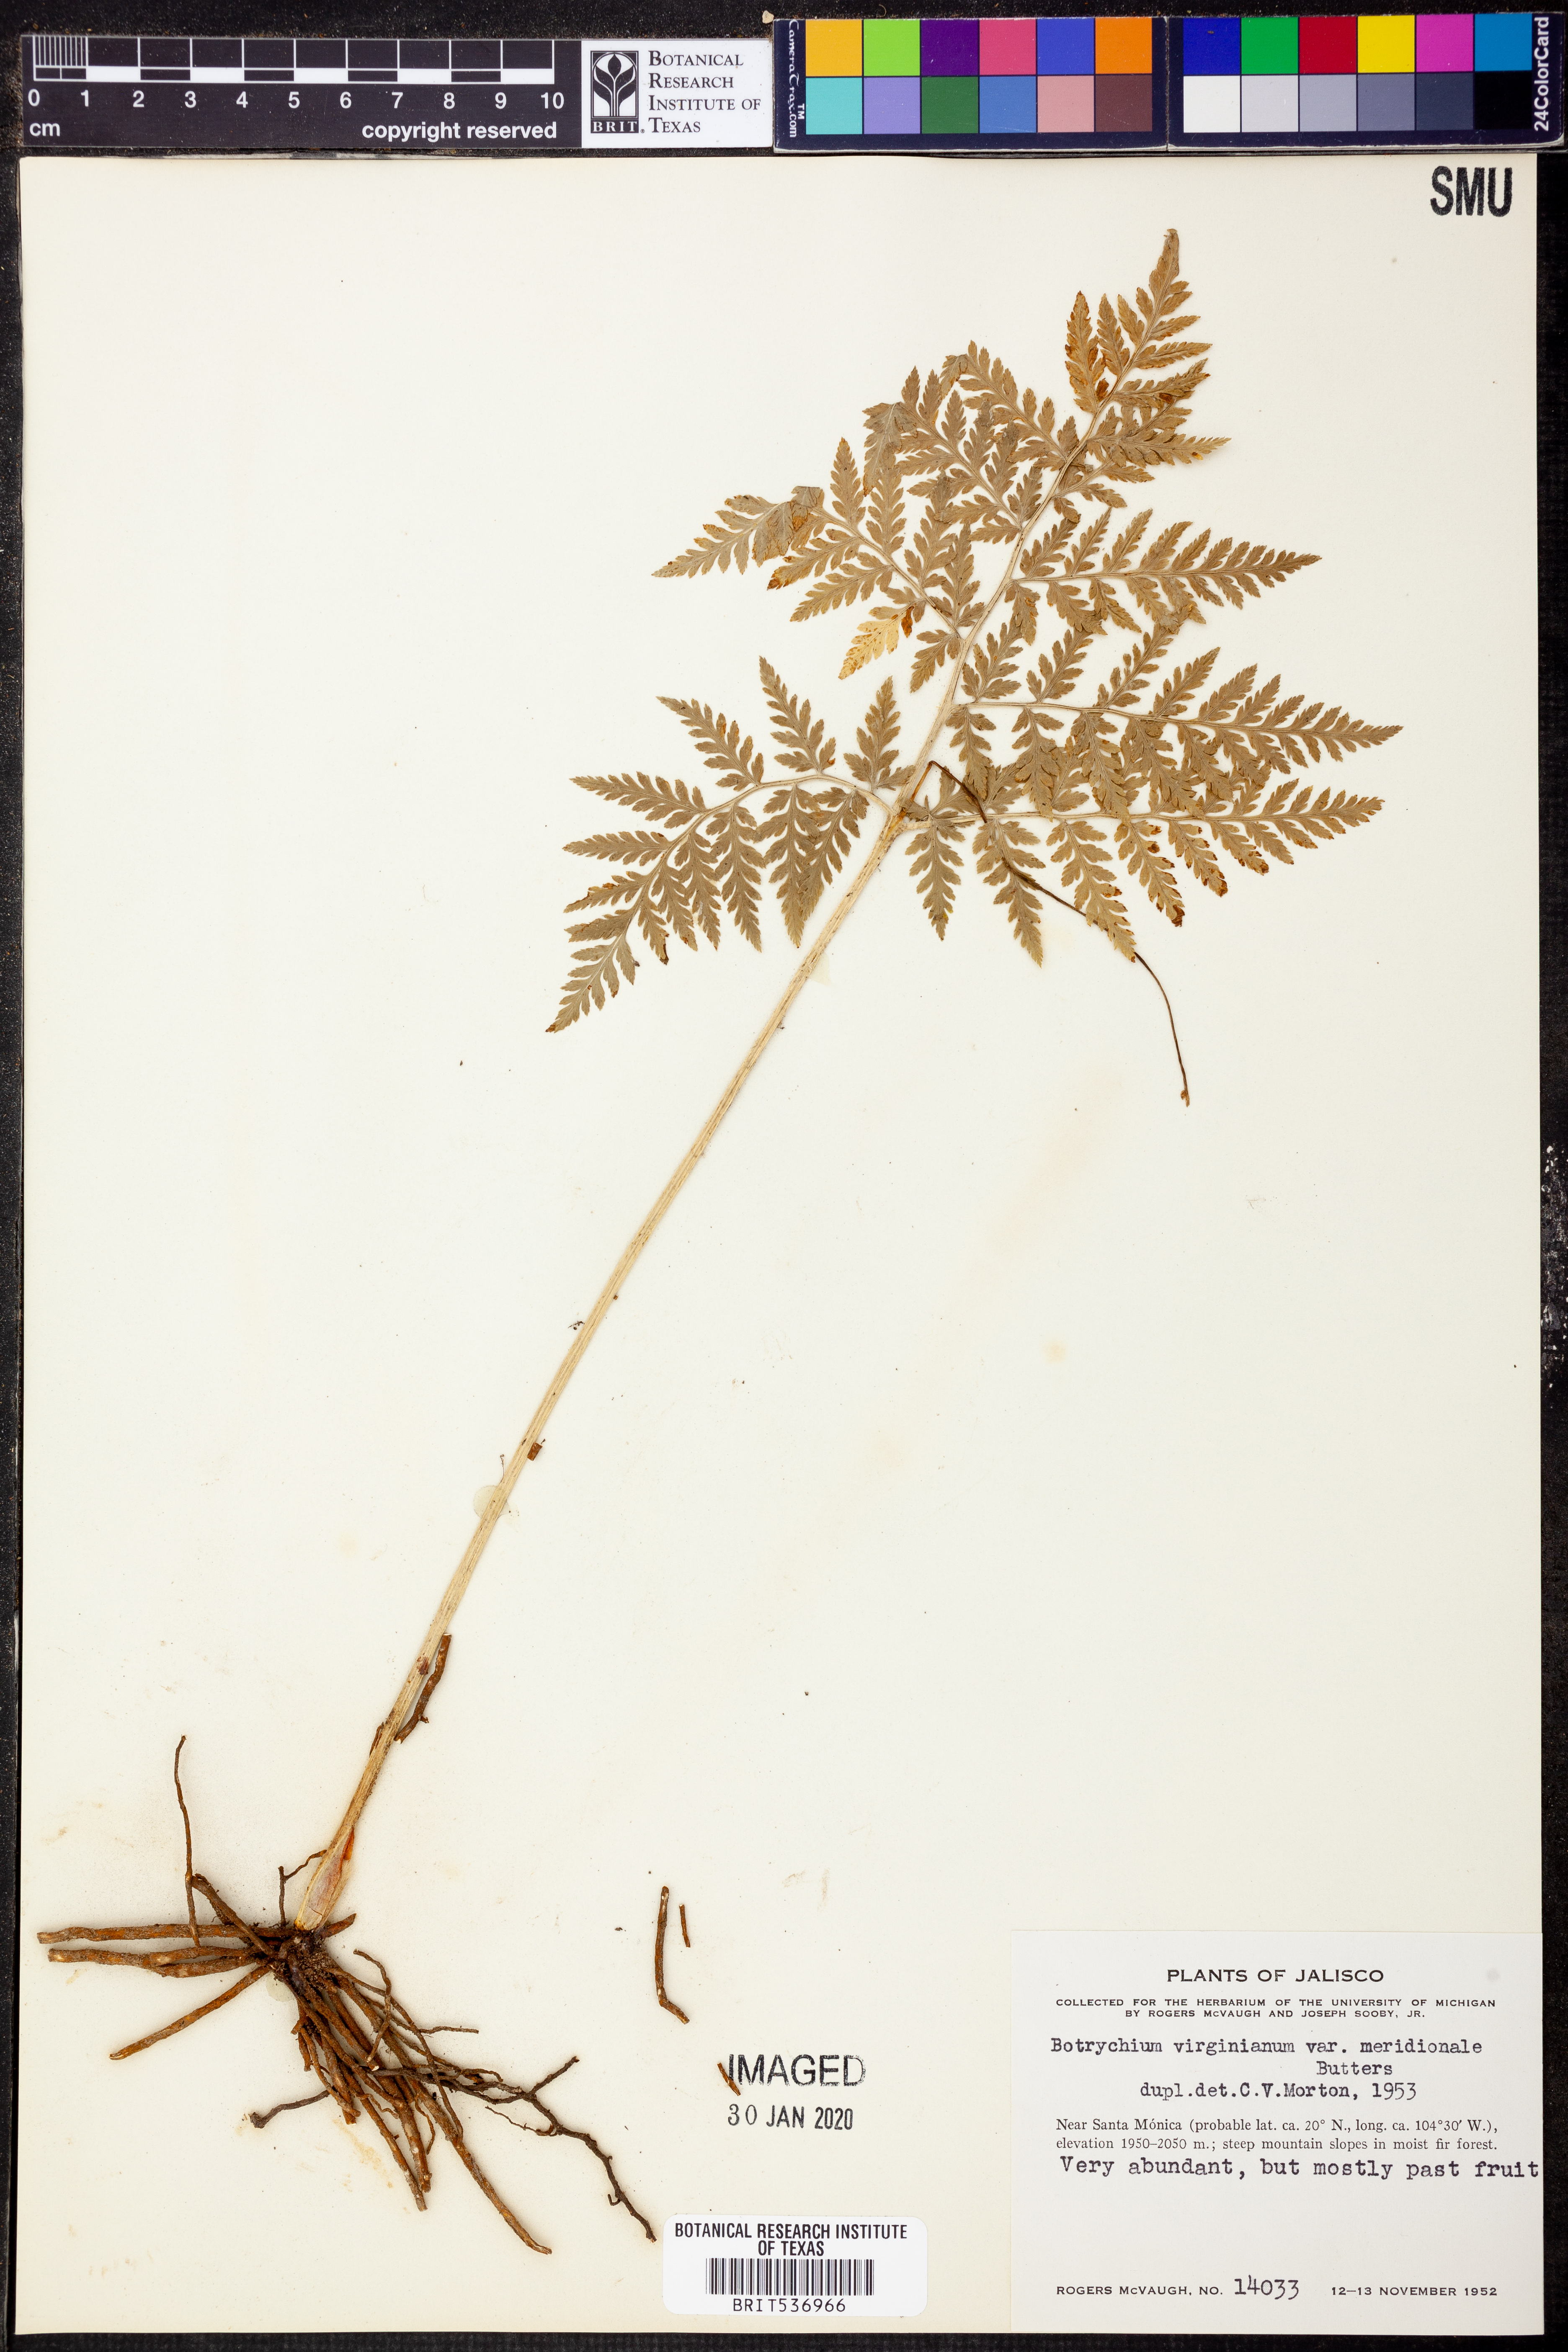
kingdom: Plantae
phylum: Tracheophyta
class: Polypodiopsida
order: Ophioglossales
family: Ophioglossaceae
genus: Botrypus
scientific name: Botrypus virginianus
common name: Common grapefern
